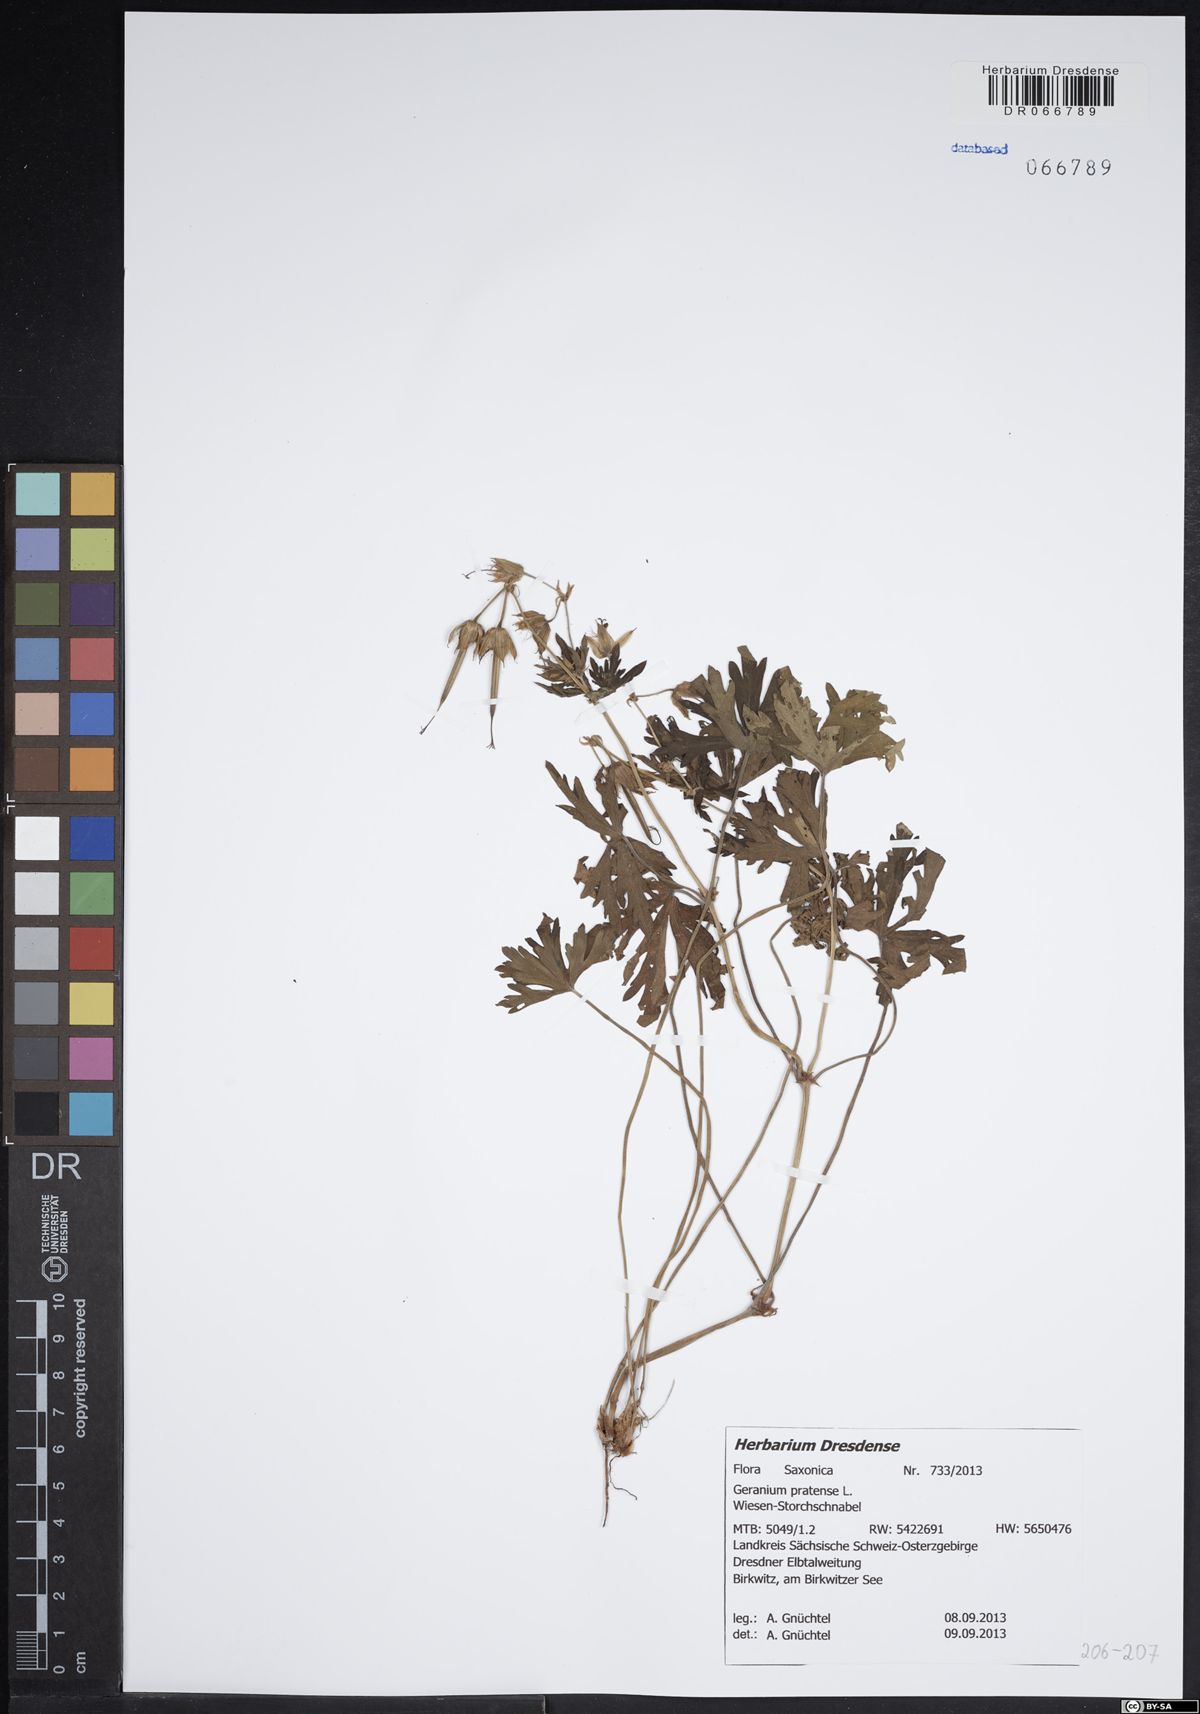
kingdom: Plantae
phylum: Tracheophyta
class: Magnoliopsida
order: Geraniales
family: Geraniaceae
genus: Geranium
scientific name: Geranium pratense
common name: Meadow crane's-bill
